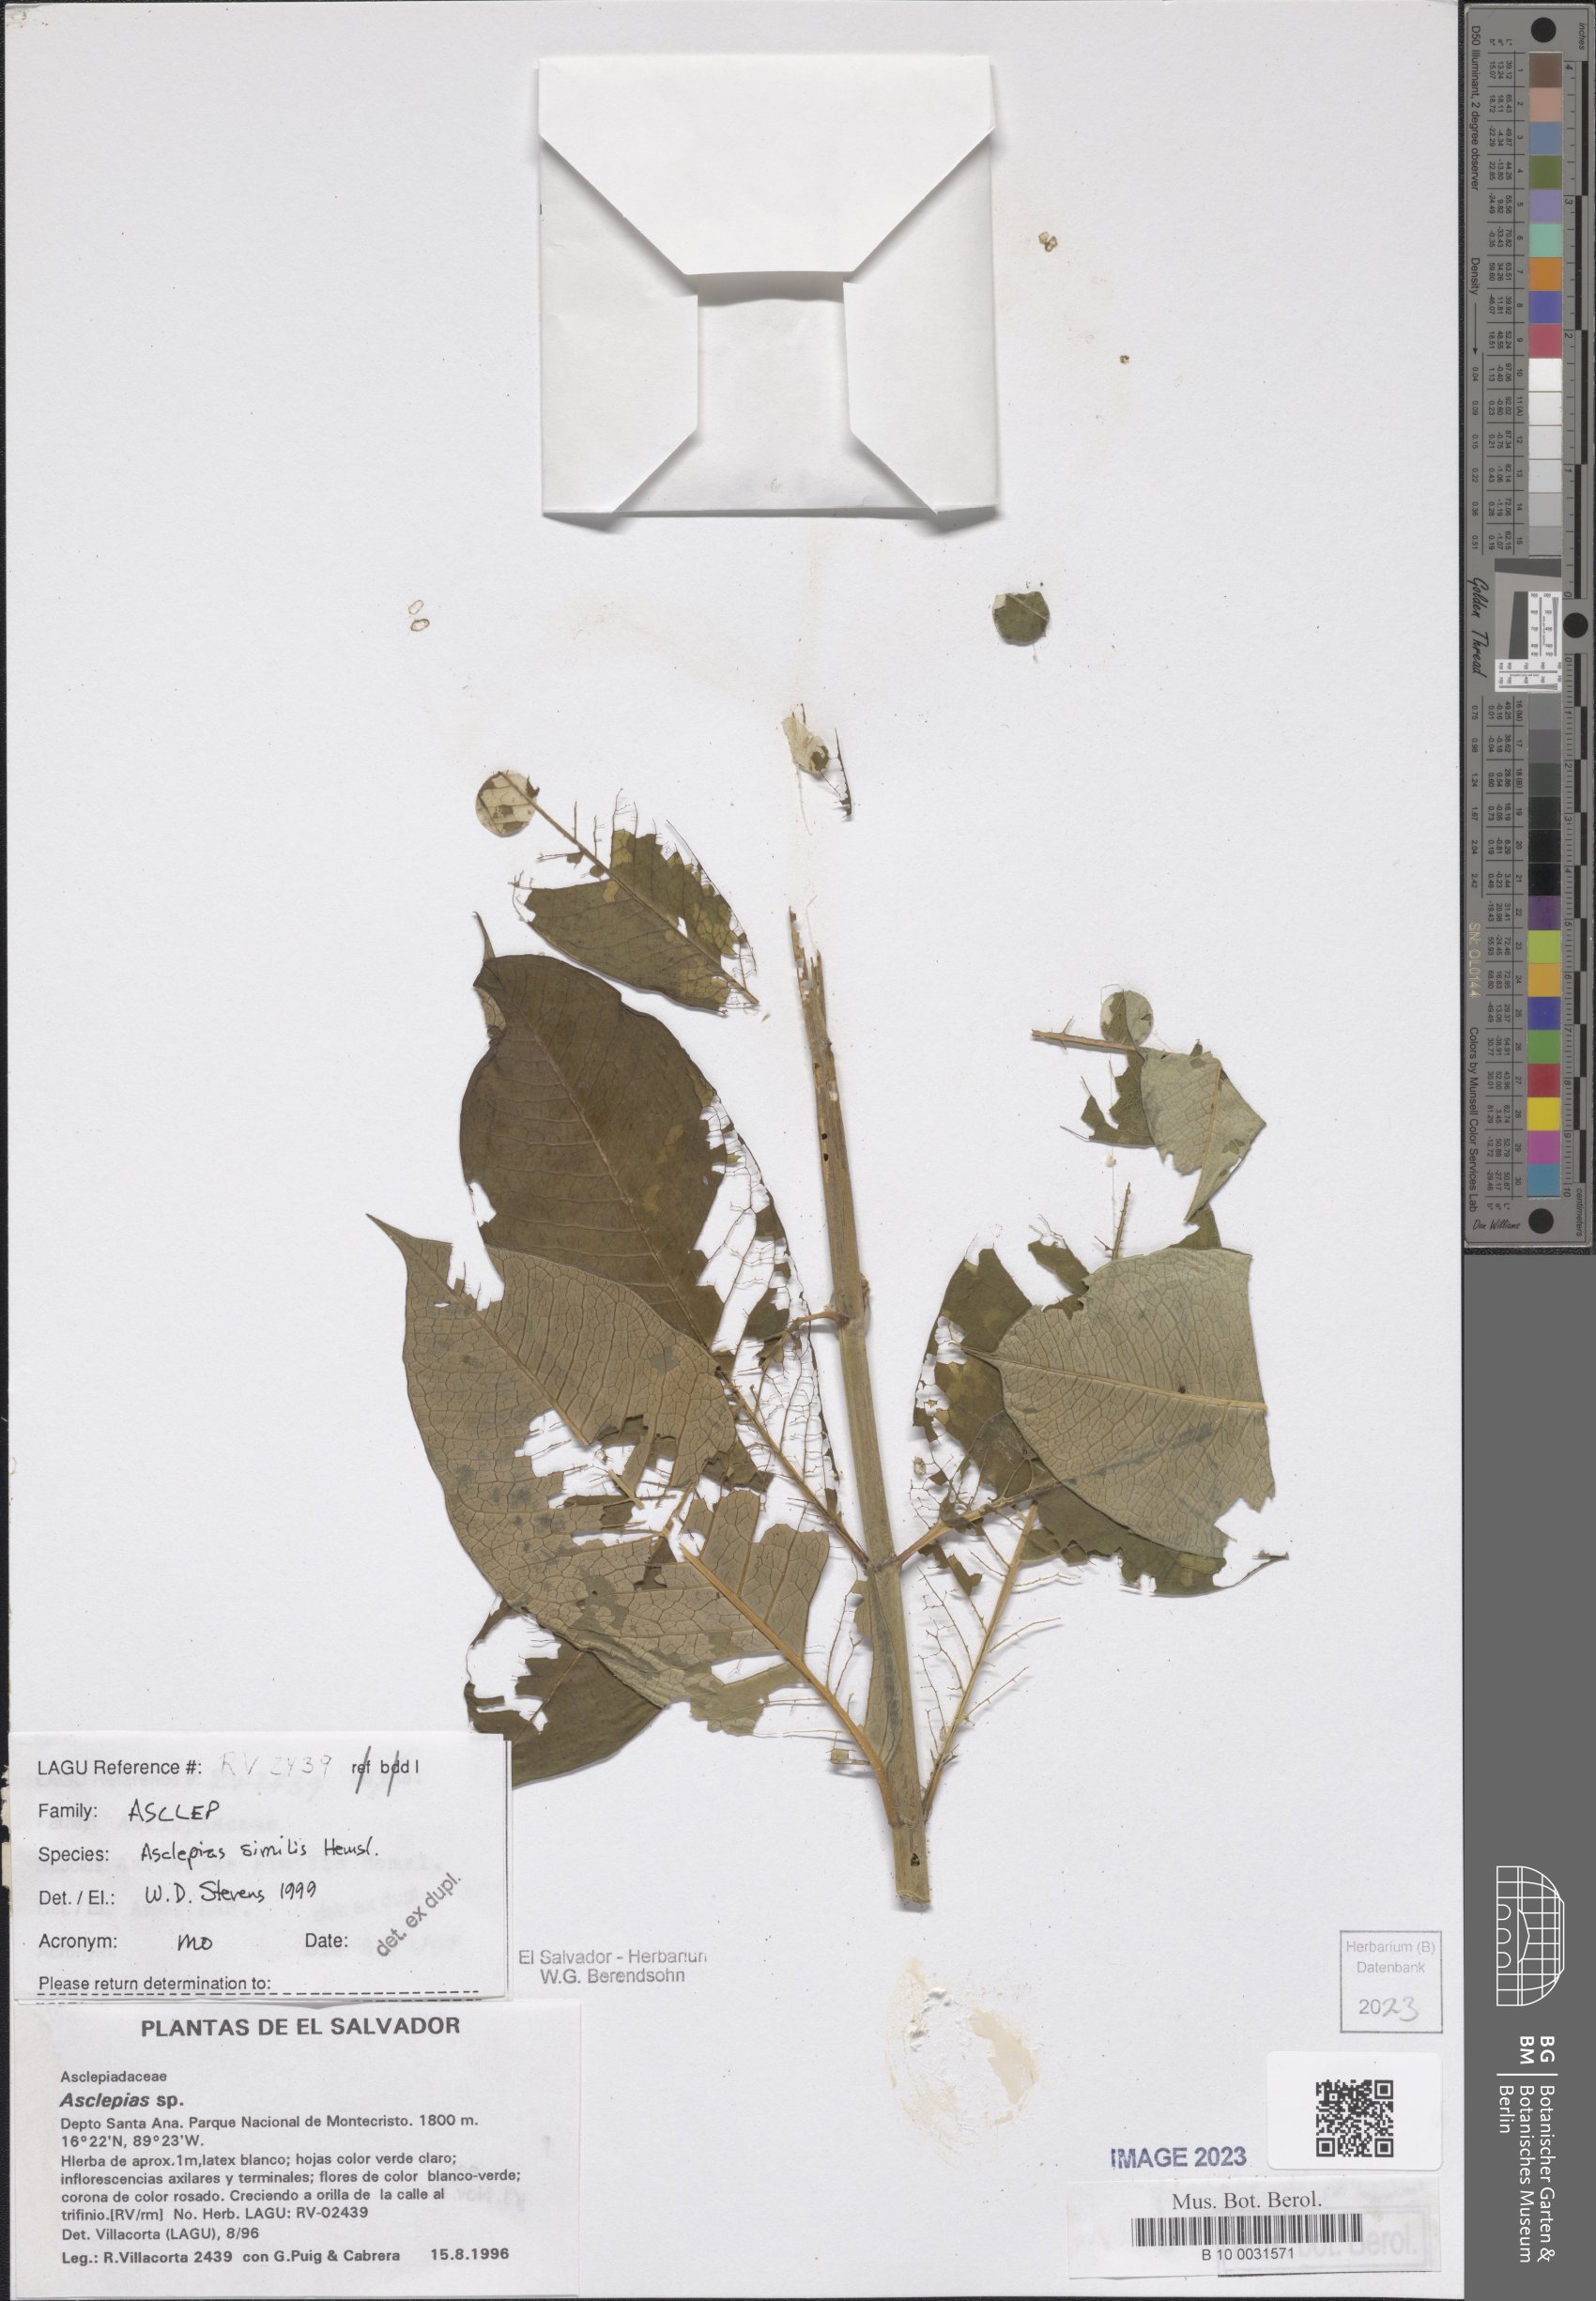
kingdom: Plantae
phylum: Tracheophyta
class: Magnoliopsida
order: Gentianales
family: Apocynaceae
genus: Asclepias
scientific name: Asclepias similis
